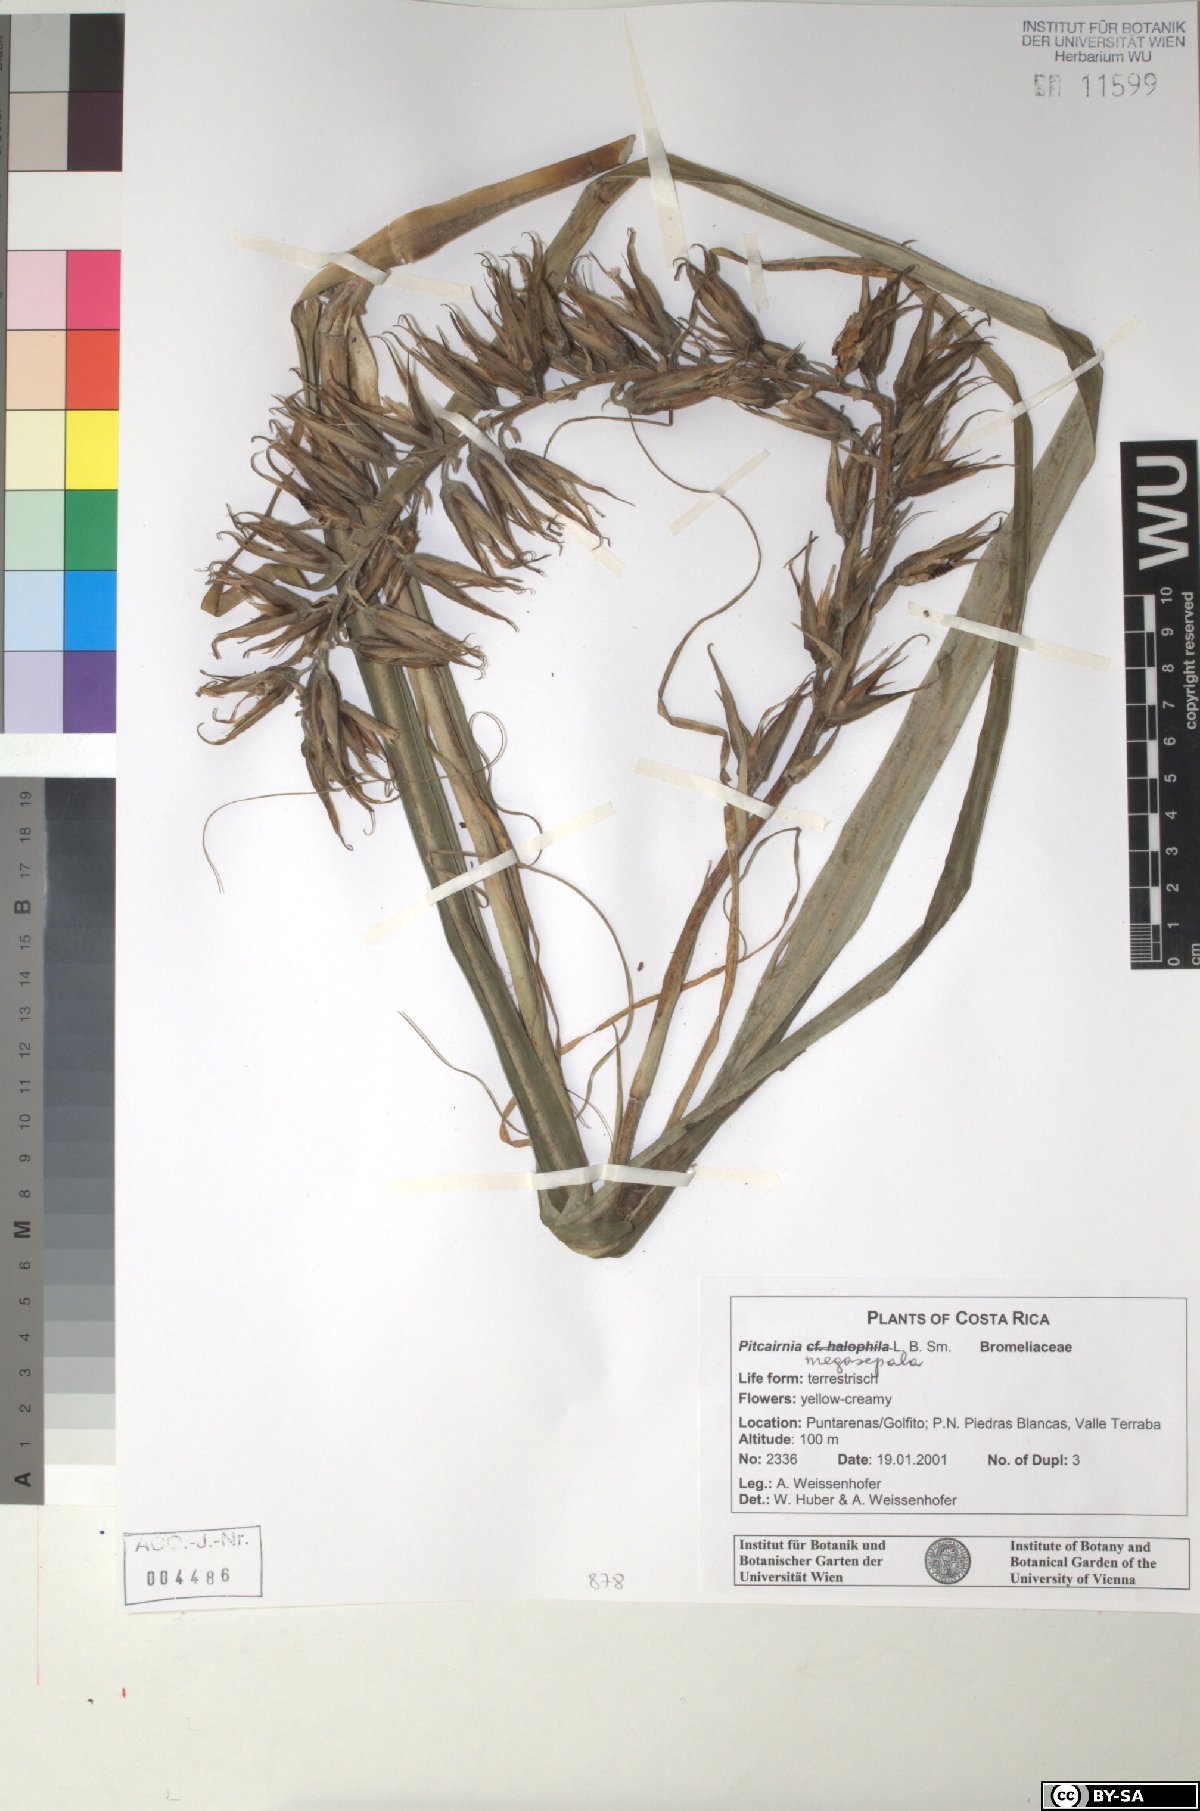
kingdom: Plantae
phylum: Tracheophyta
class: Liliopsida
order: Poales
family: Bromeliaceae
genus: Pitcairnia
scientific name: Pitcairnia megasepala
